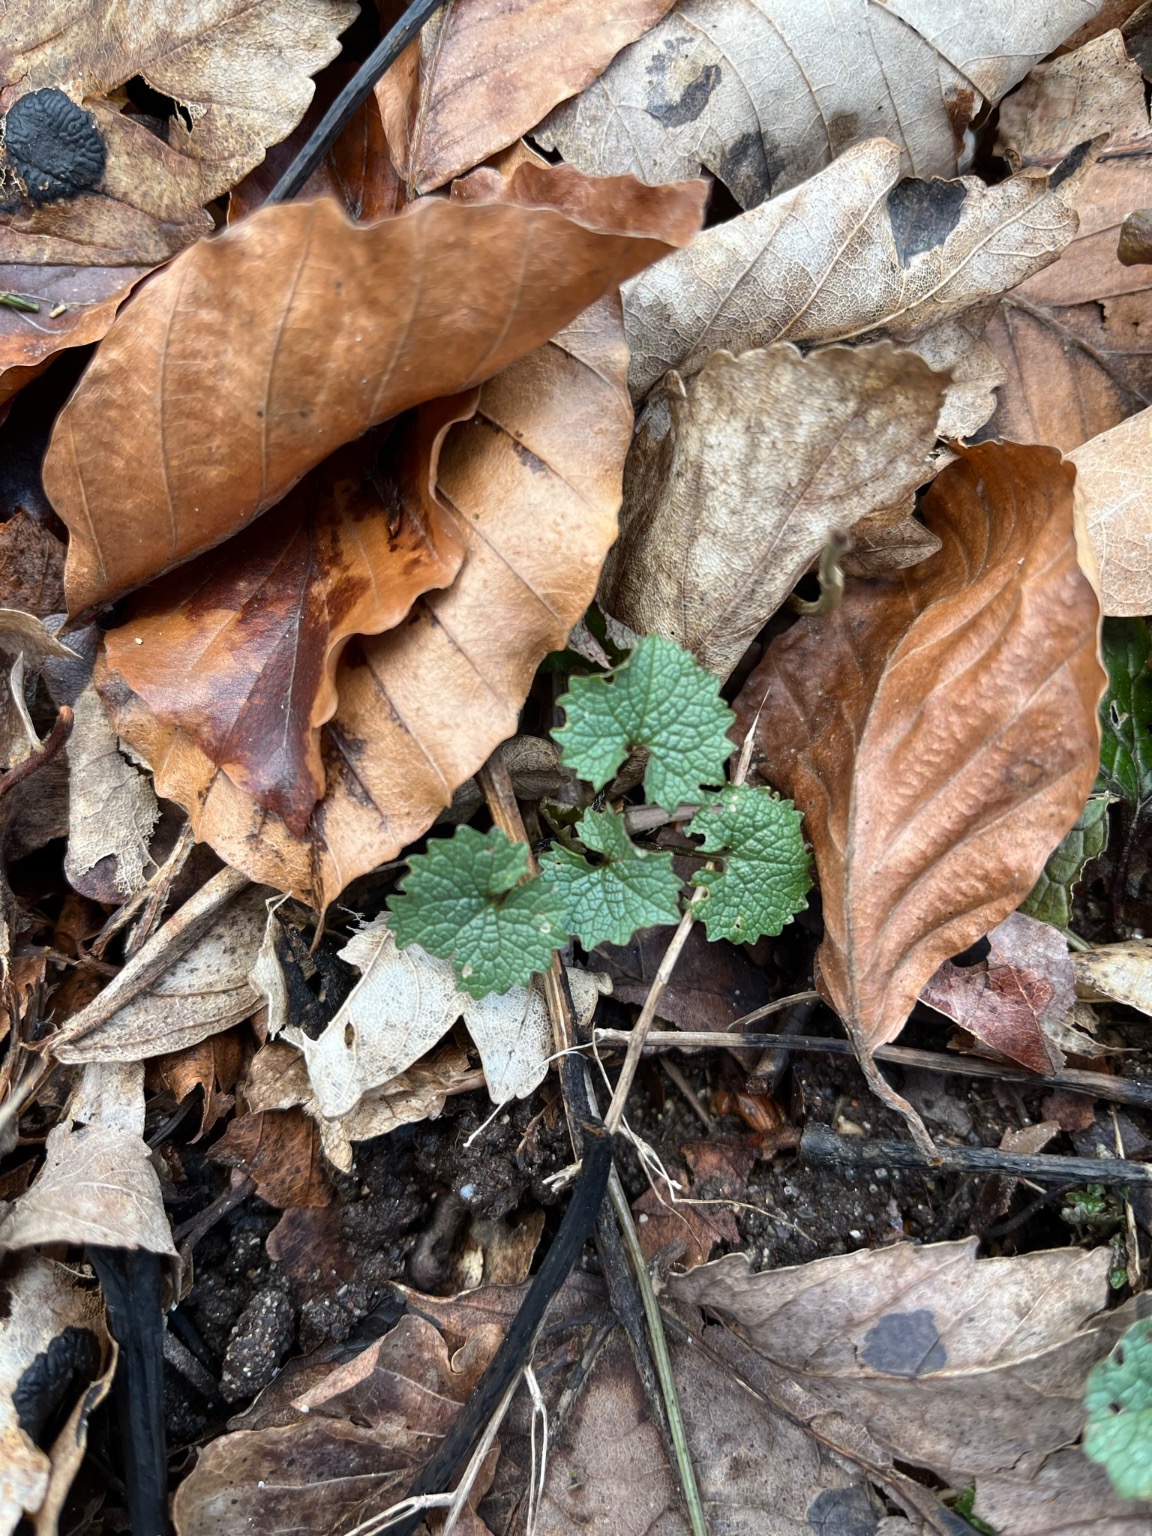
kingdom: Plantae
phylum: Tracheophyta
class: Magnoliopsida
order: Brassicales
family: Brassicaceae
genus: Alliaria
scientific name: Alliaria petiolata
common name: Løgkarse
